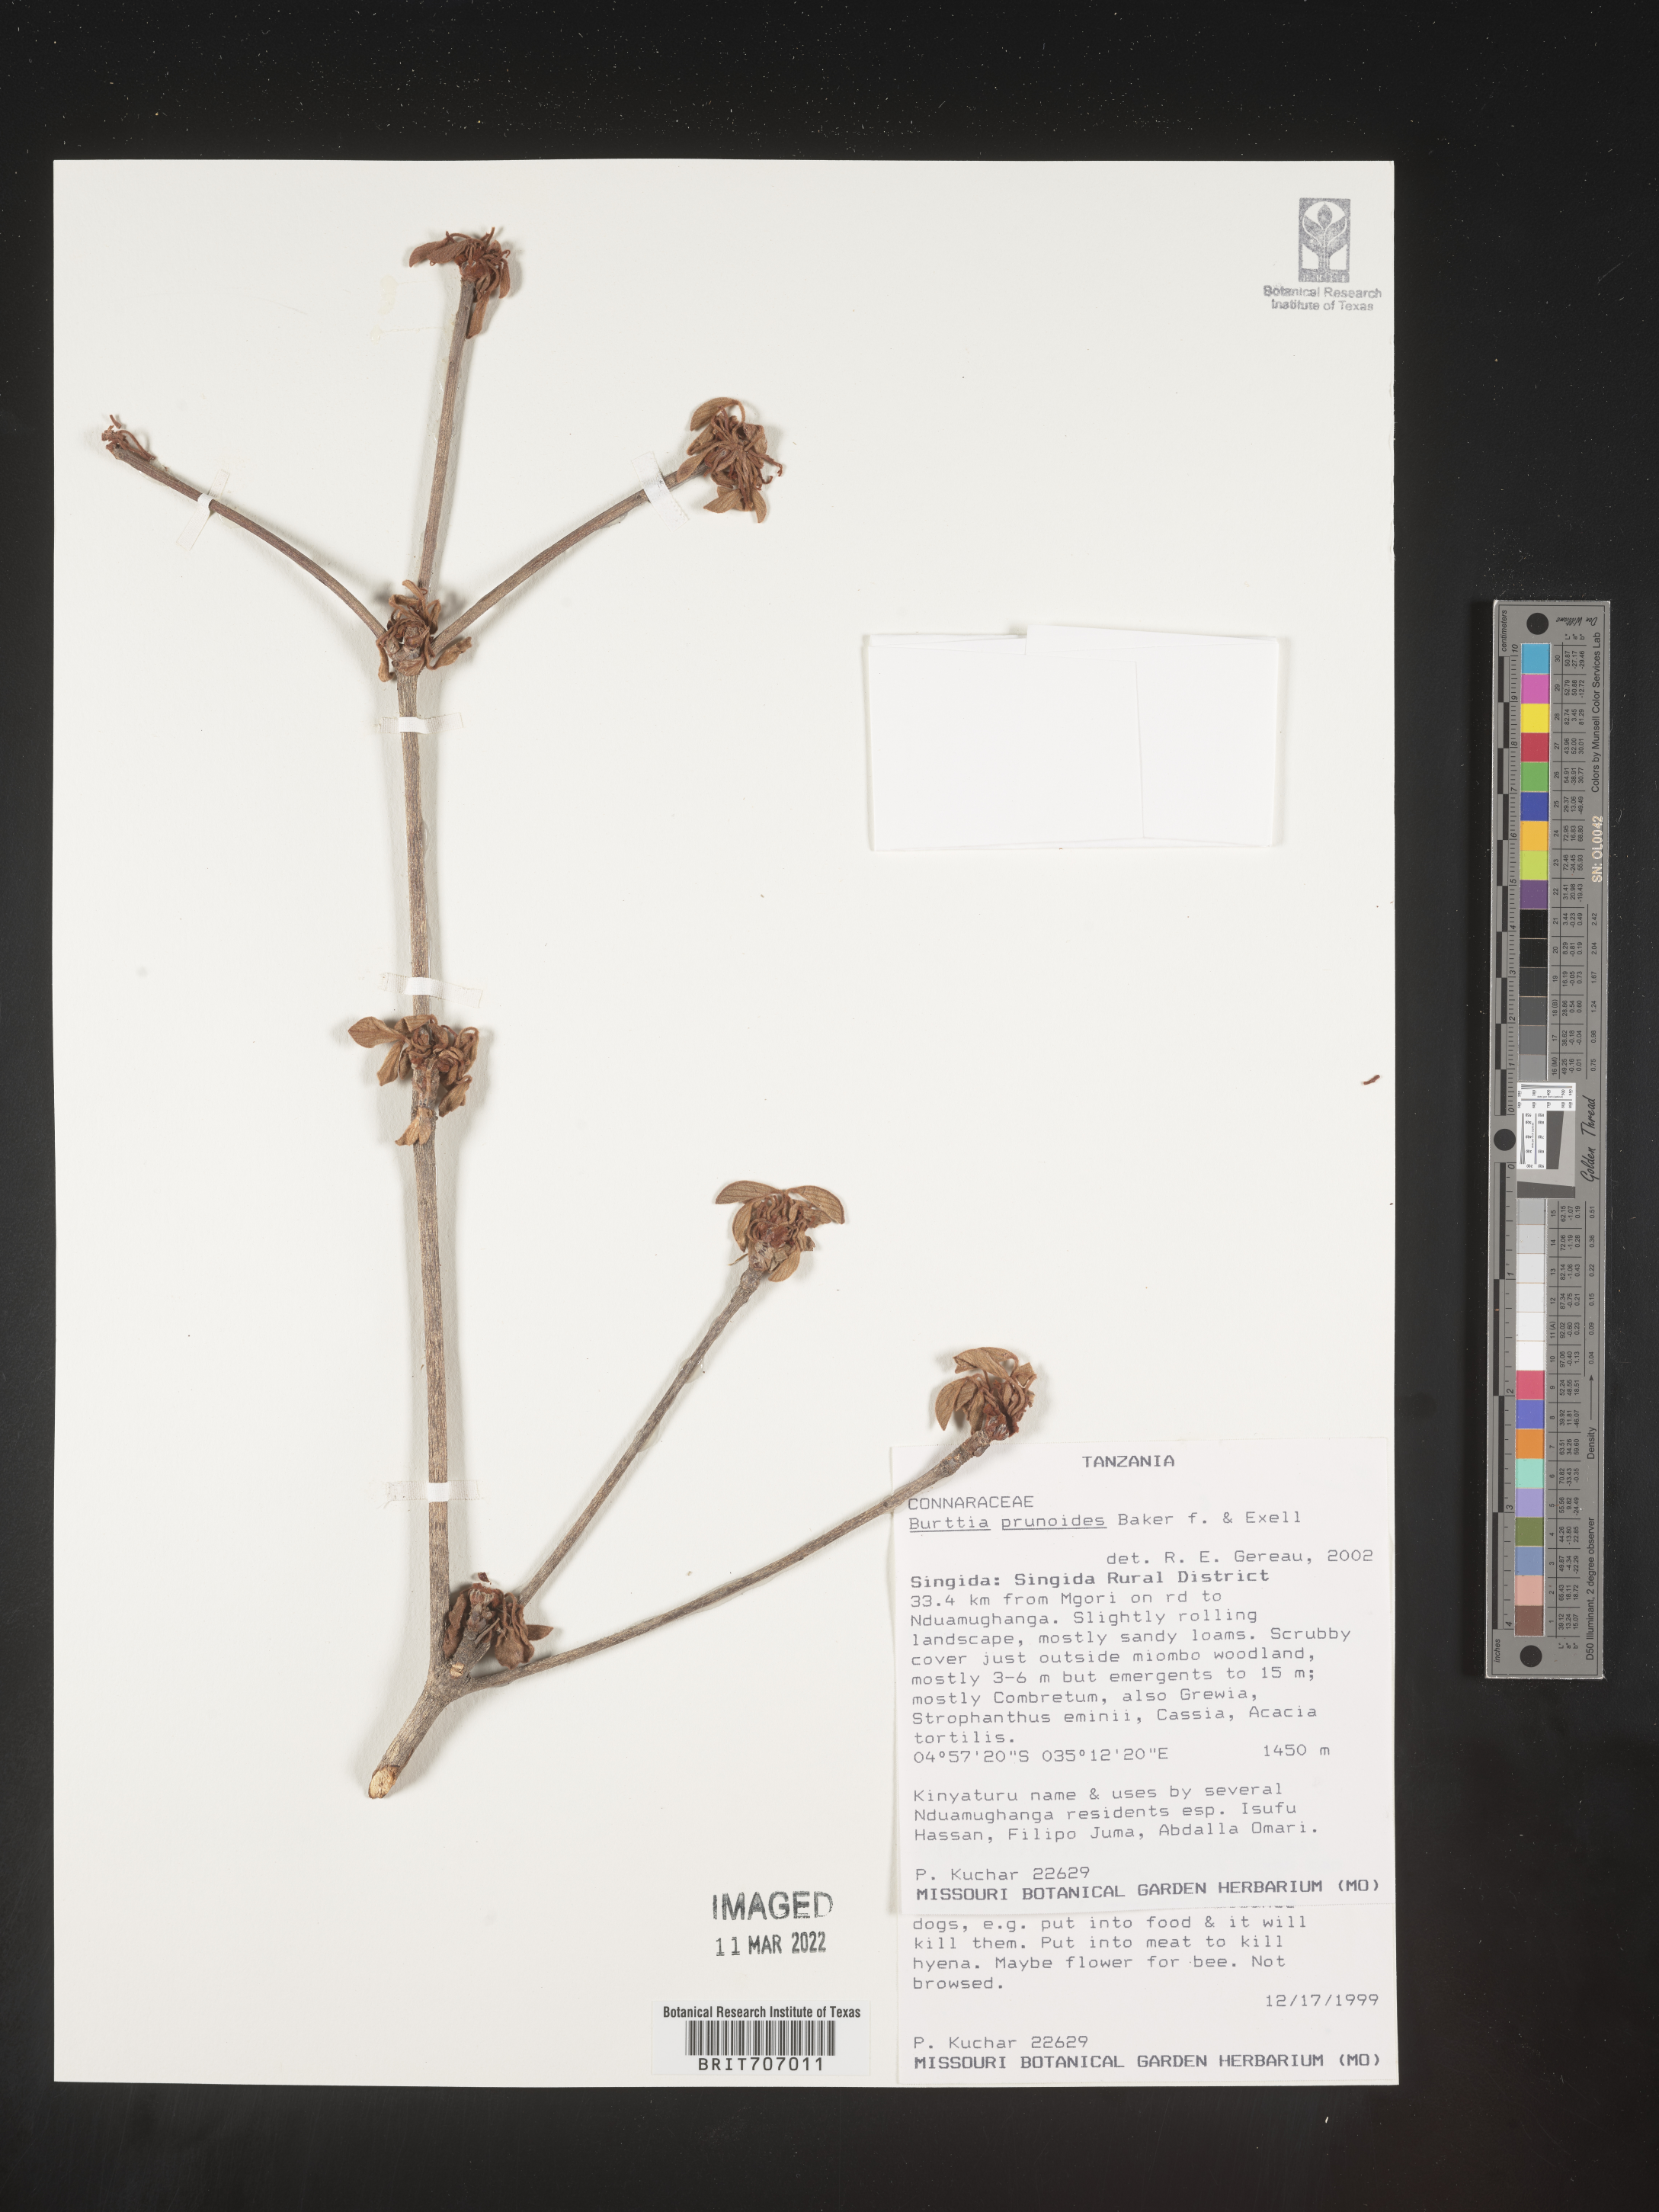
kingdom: Plantae
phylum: Tracheophyta
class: Magnoliopsida
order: Oxalidales
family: Connaraceae
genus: Burttia
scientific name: Burttia
